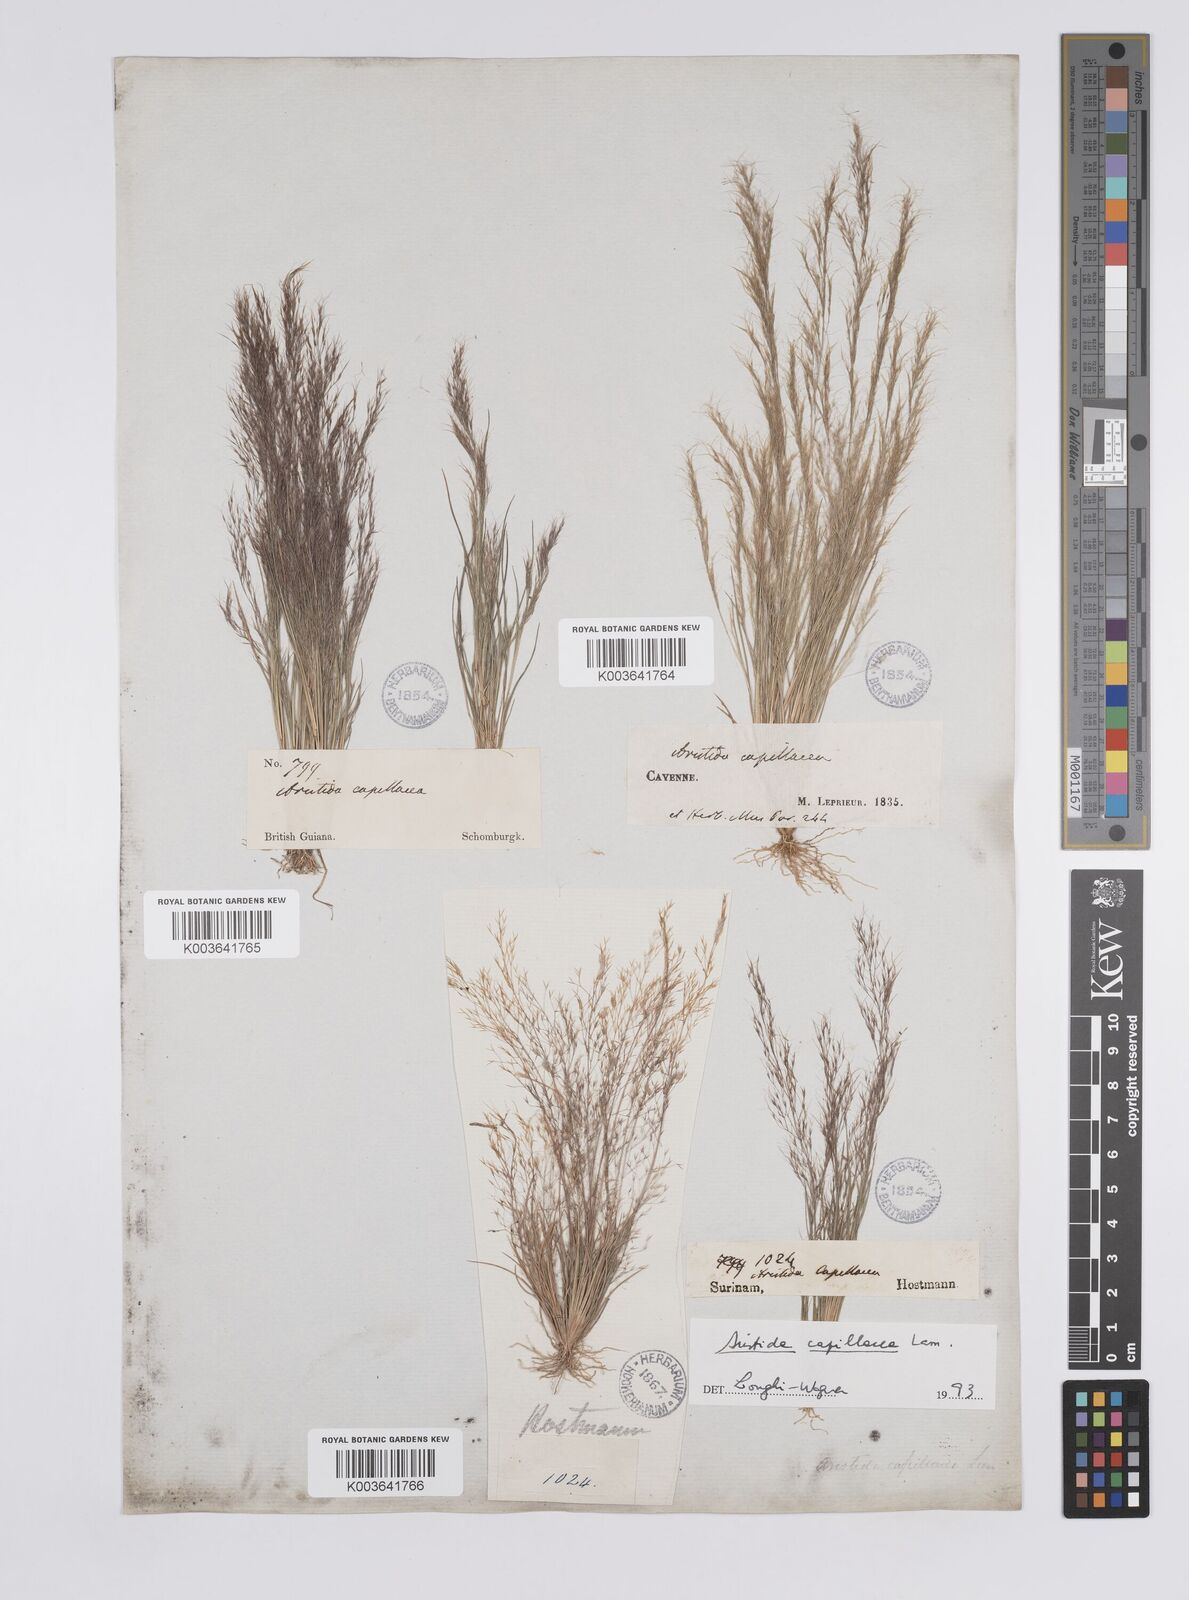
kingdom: Plantae
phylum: Tracheophyta
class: Liliopsida
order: Poales
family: Poaceae
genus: Aristida
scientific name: Aristida capillacea
